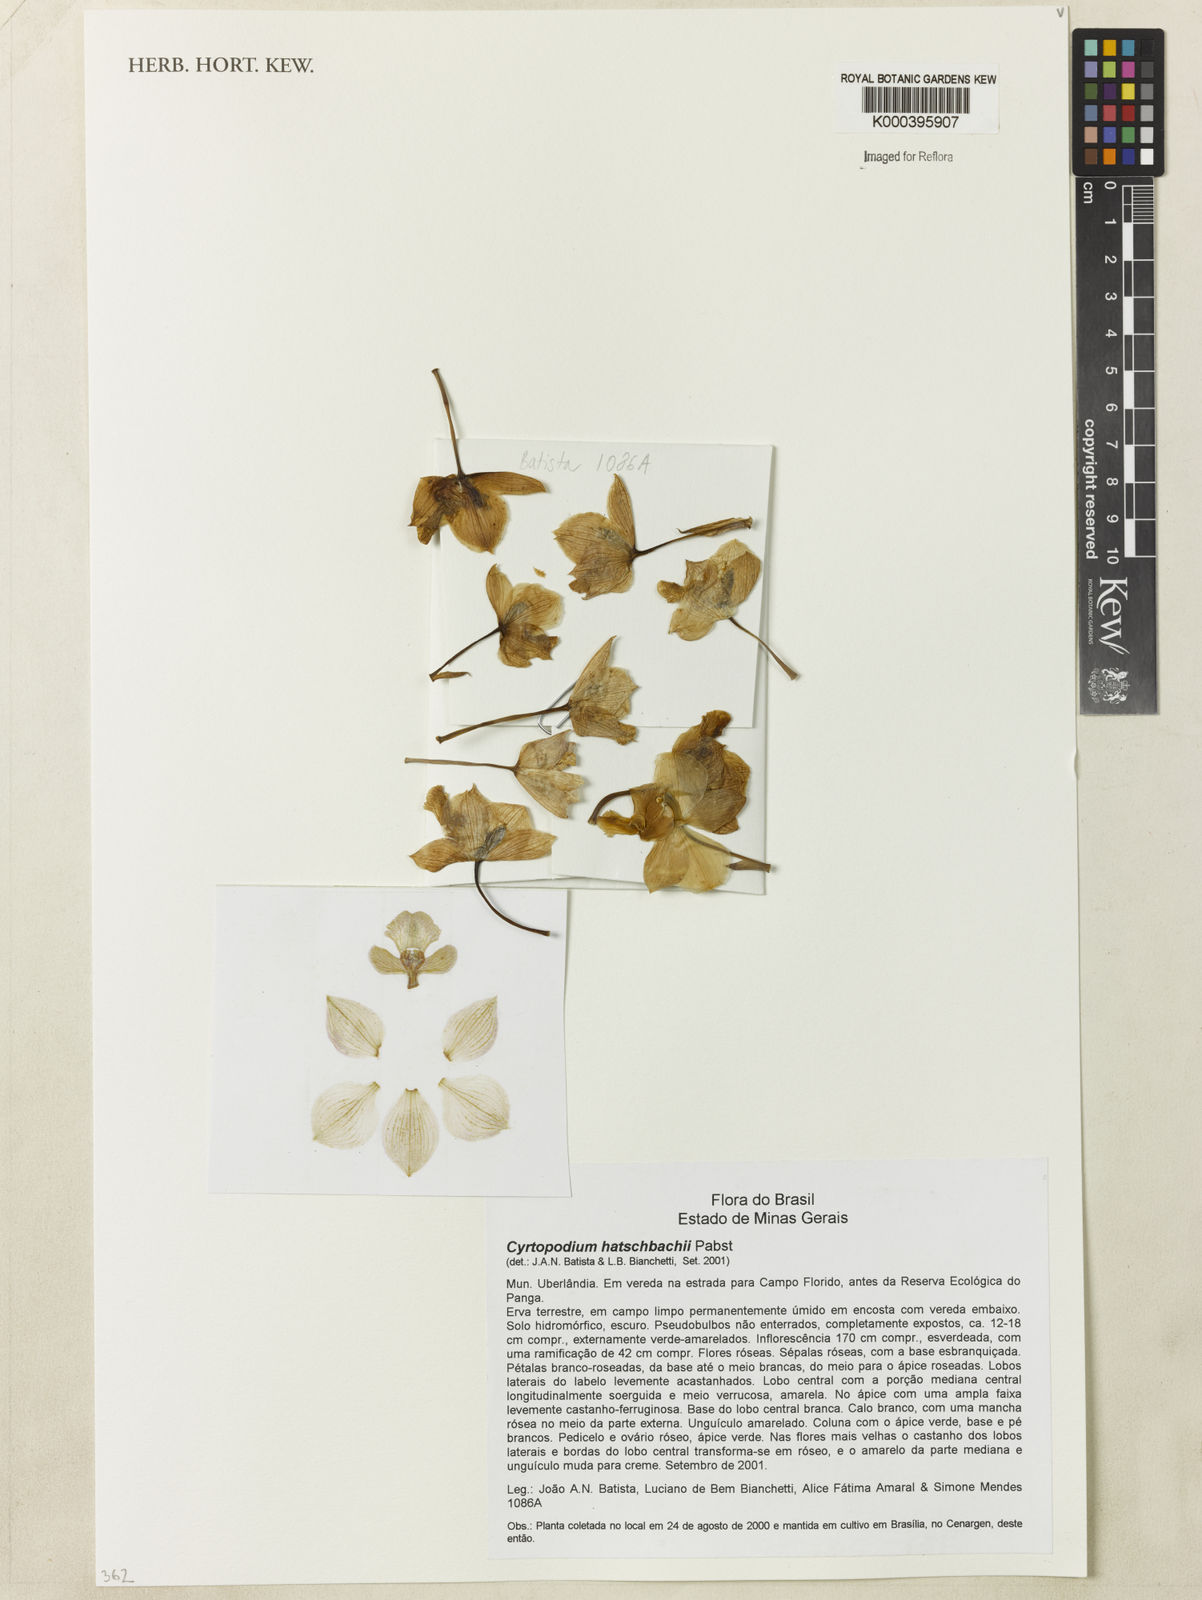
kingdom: Plantae
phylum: Tracheophyta
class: Liliopsida
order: Asparagales
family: Orchidaceae
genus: Cyrtopodium
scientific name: Cyrtopodium hatschbachii
